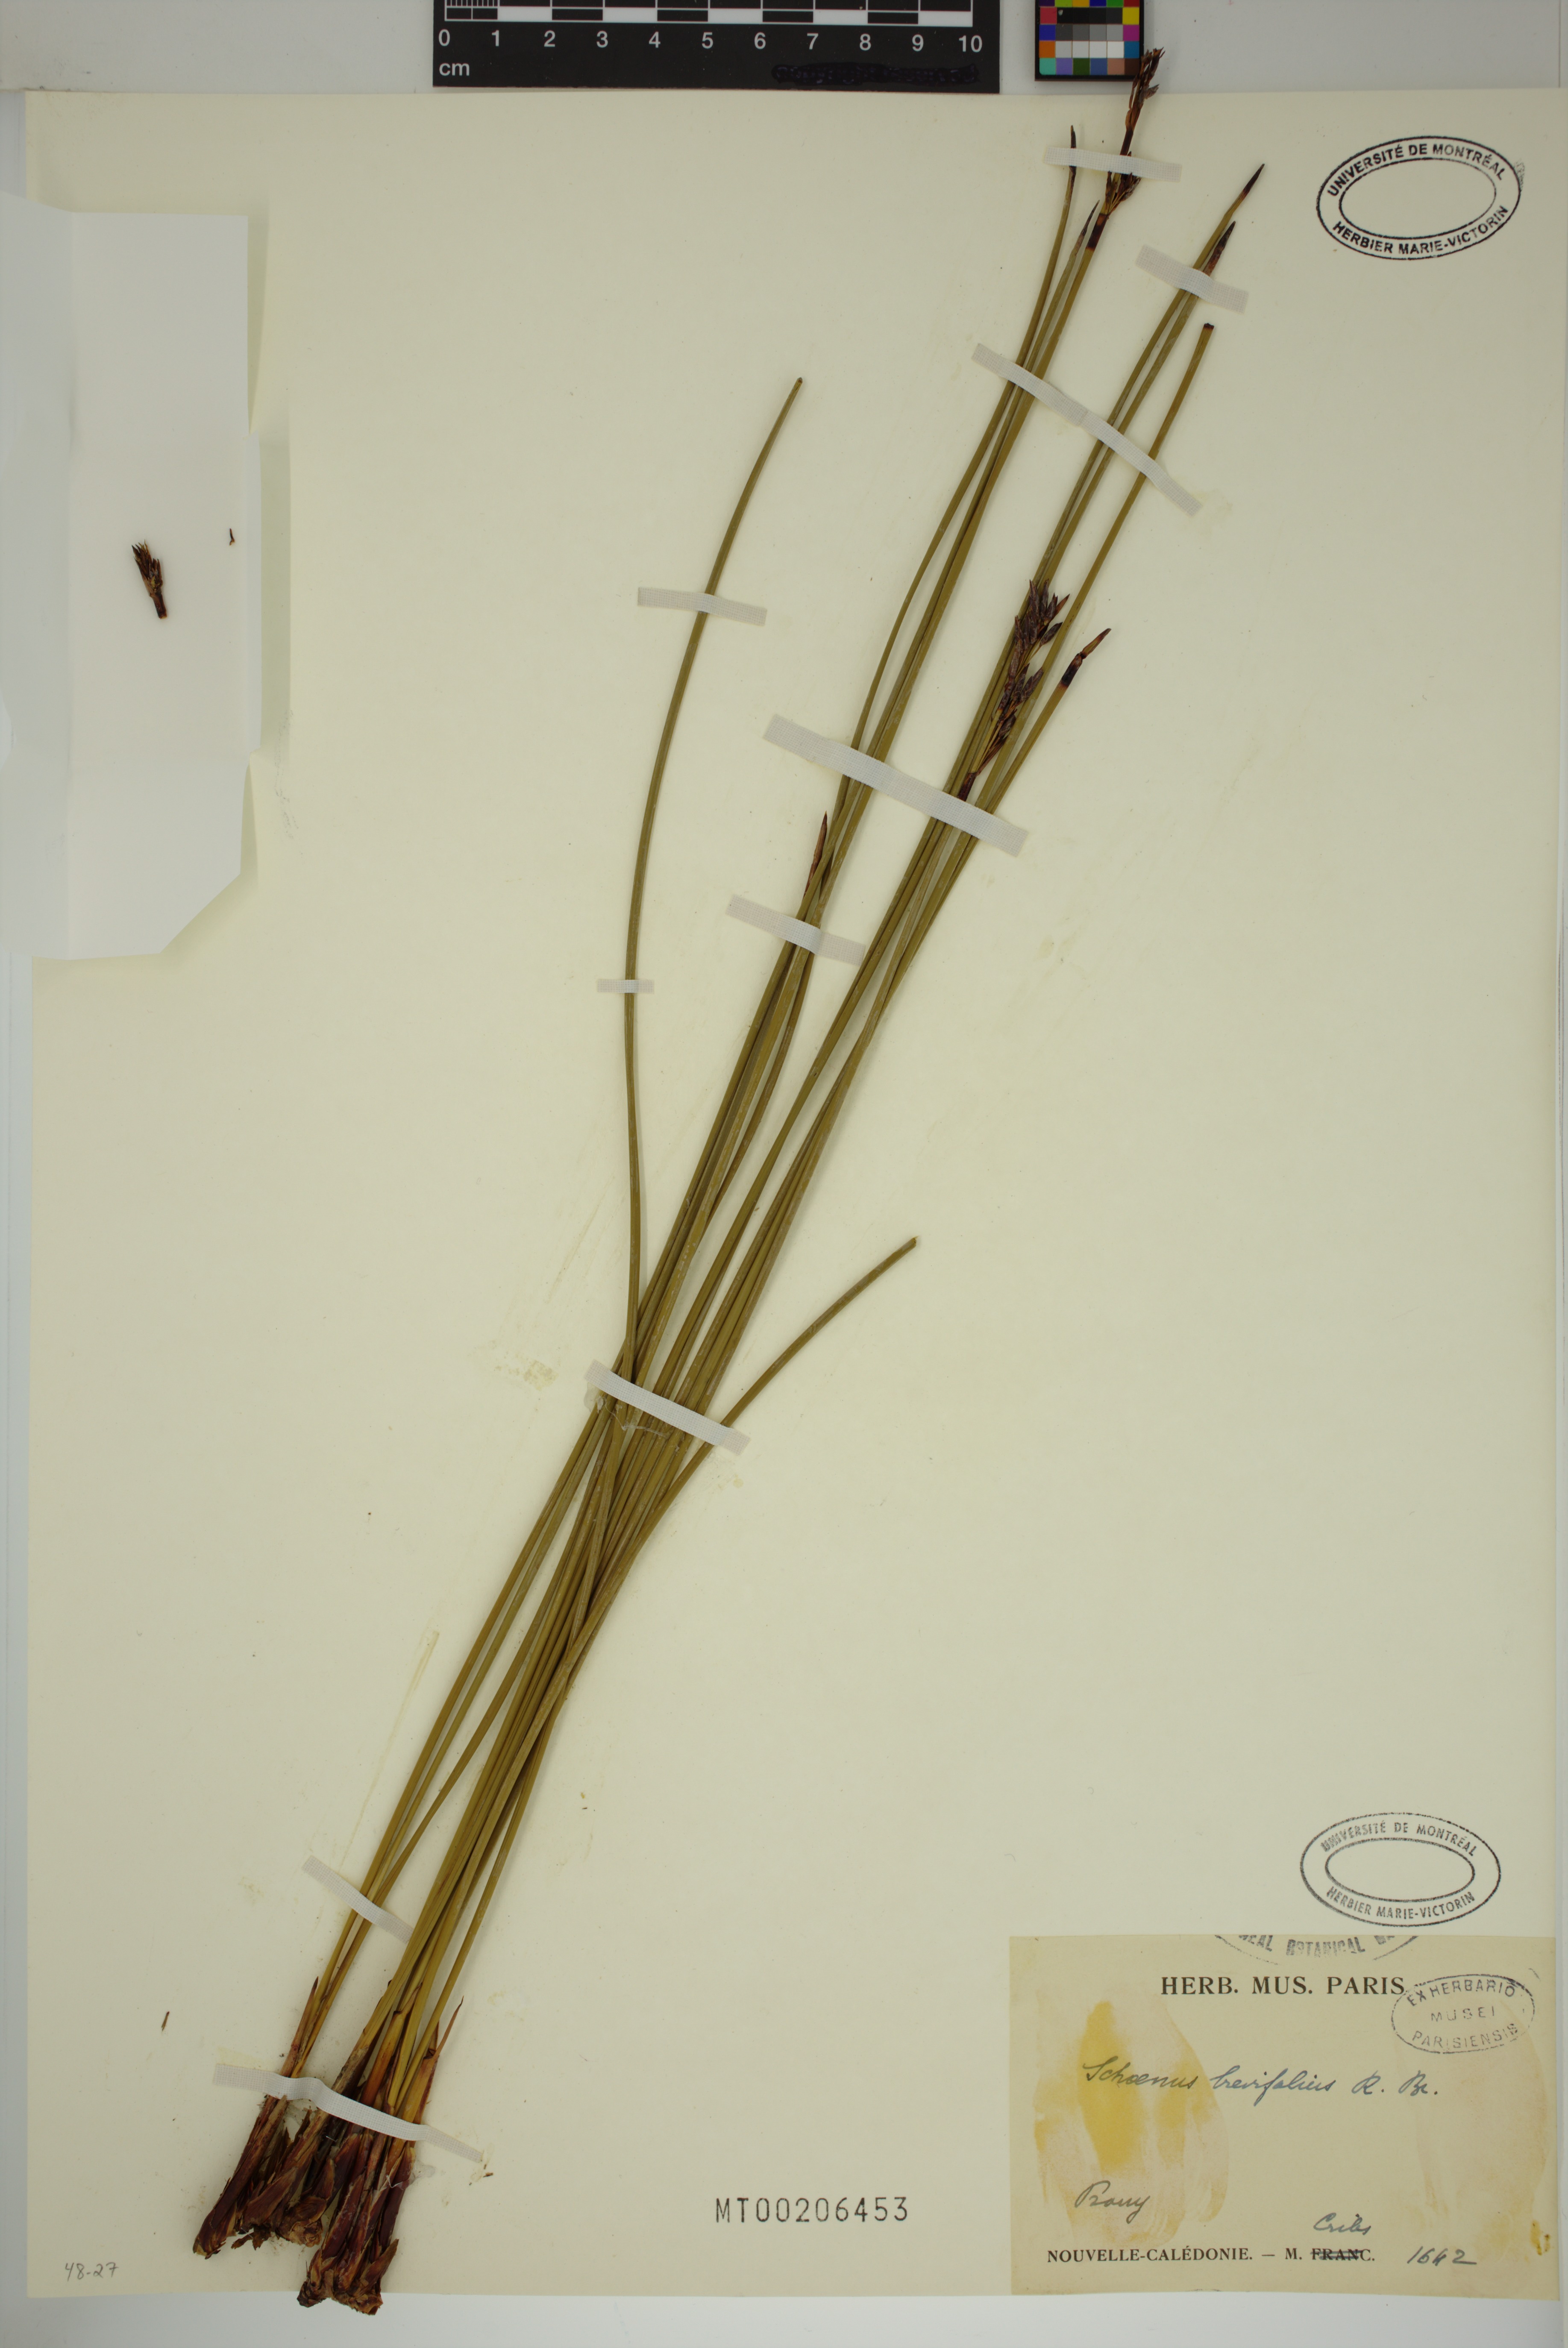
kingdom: Plantae
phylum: Tracheophyta
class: Liliopsida
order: Poales
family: Cyperaceae
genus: Schoenus
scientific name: Schoenus brevifolius
